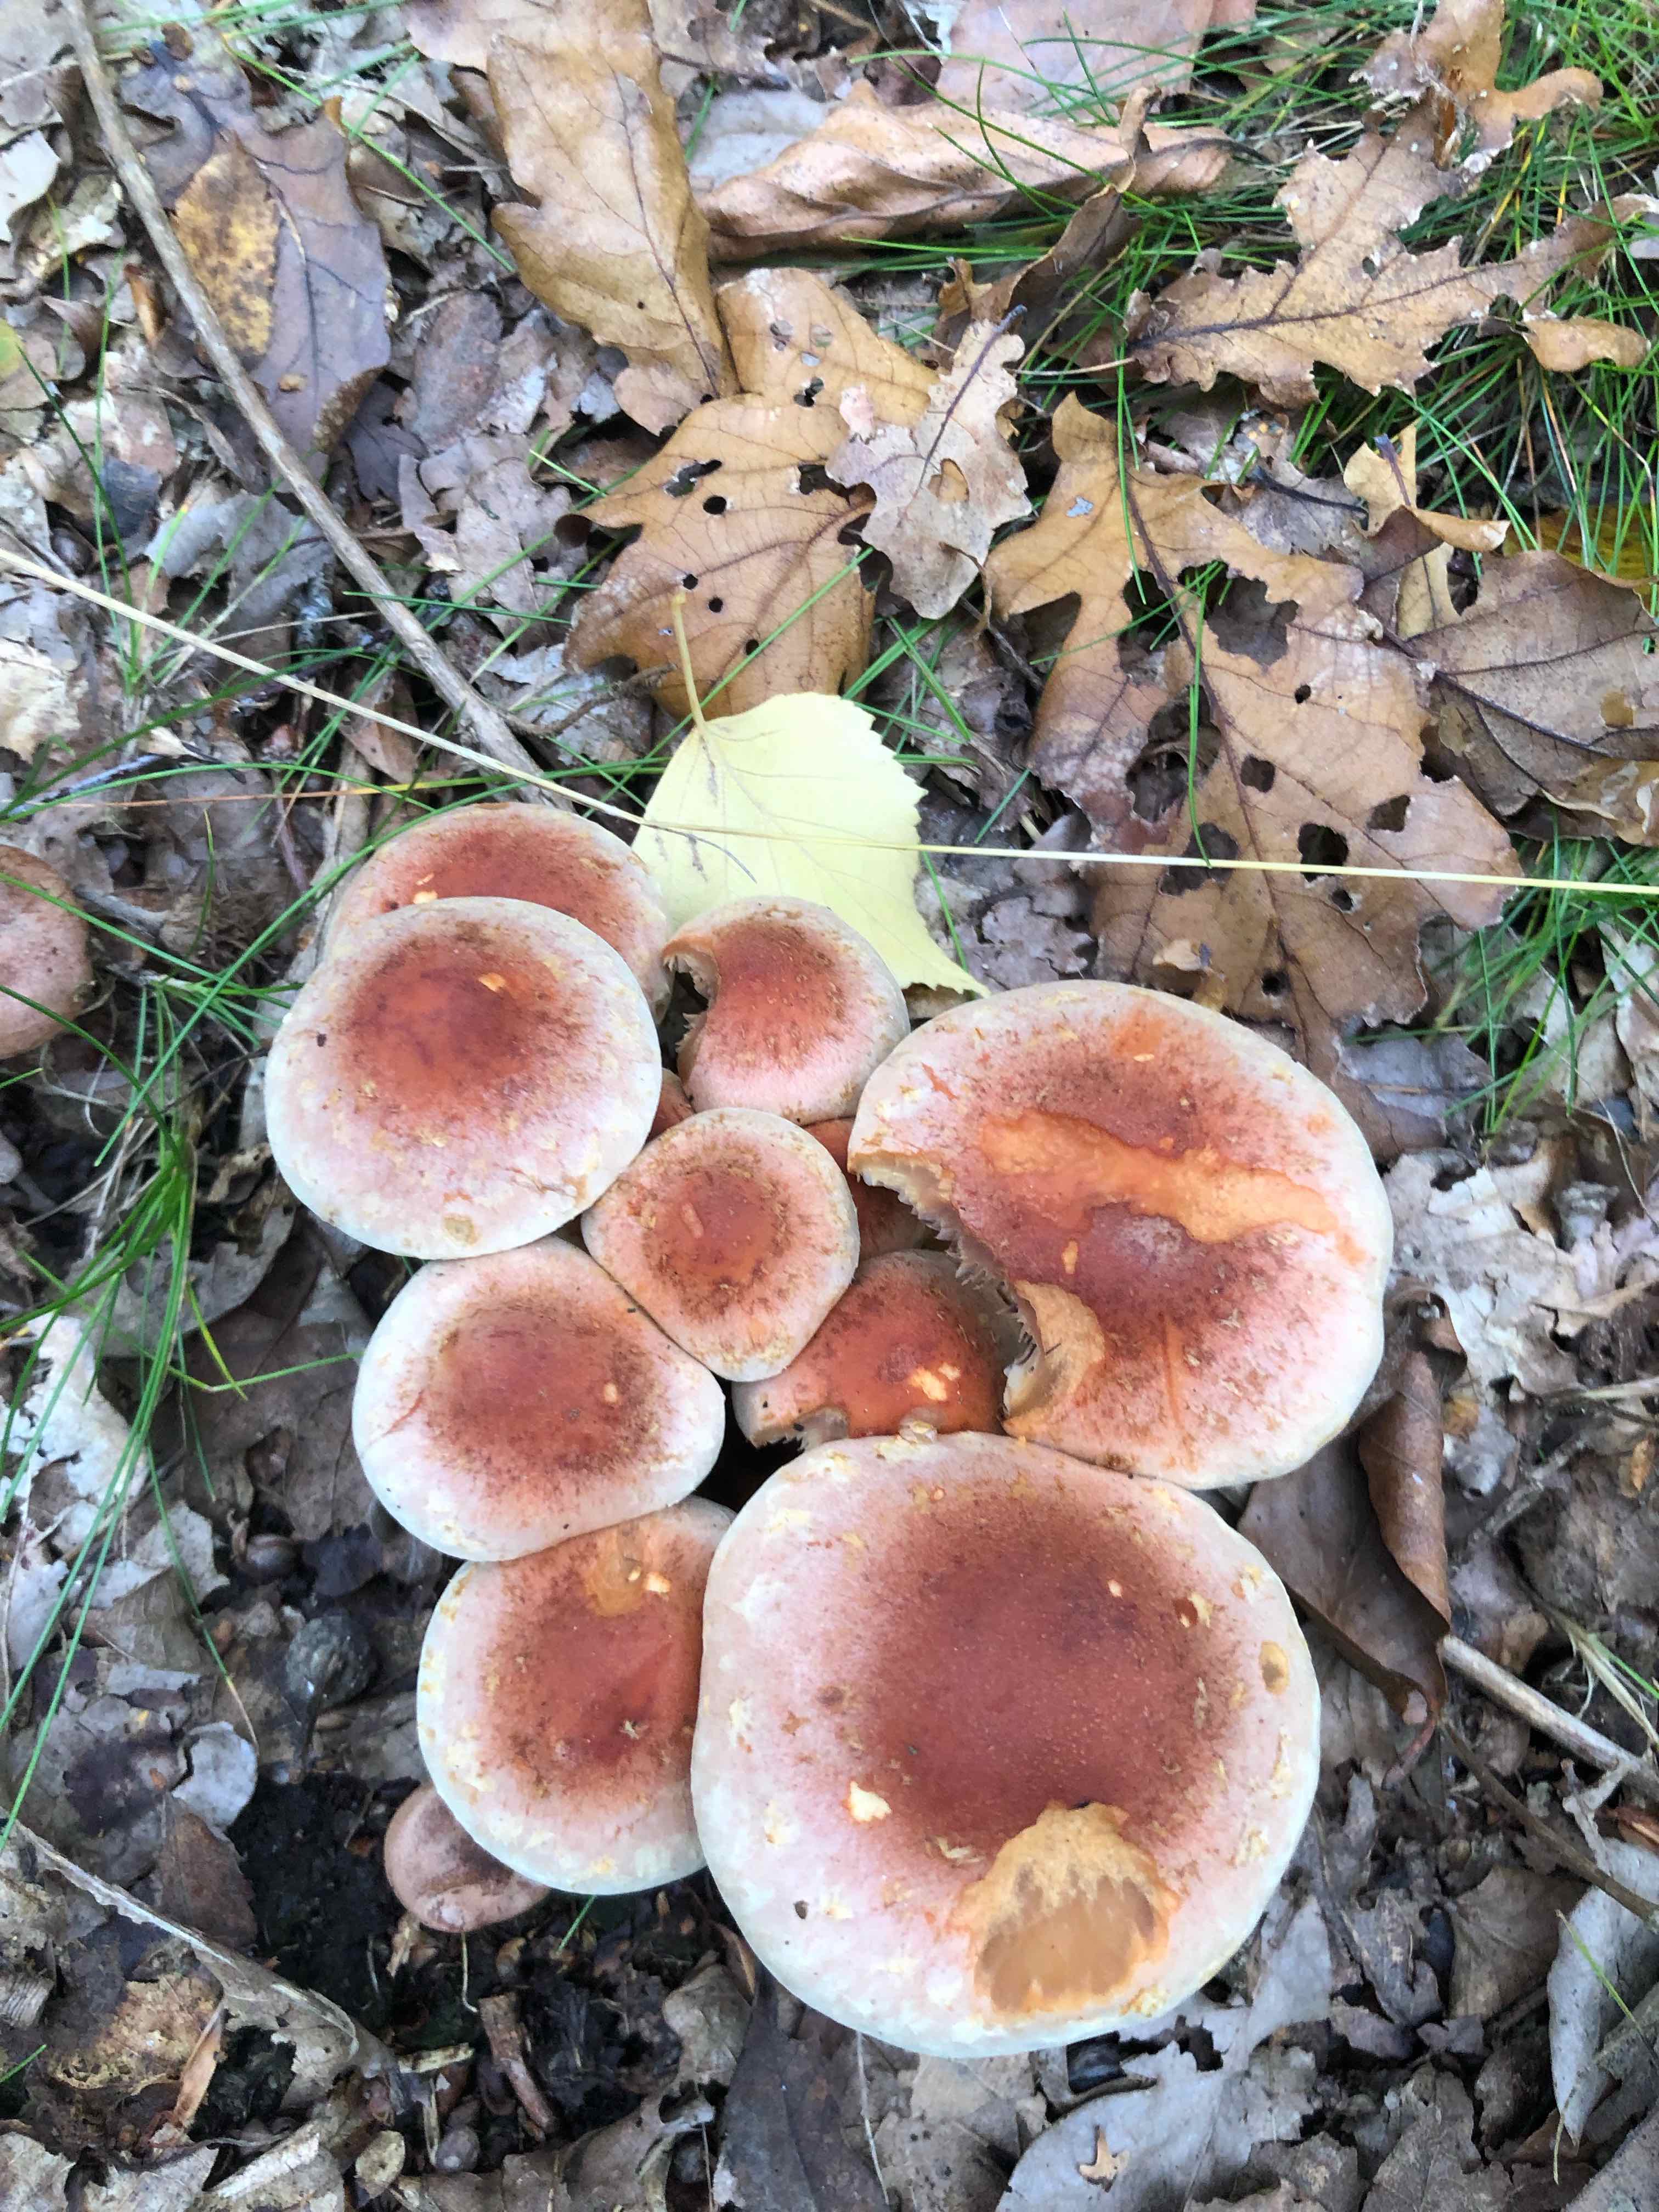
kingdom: Fungi
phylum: Basidiomycota
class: Agaricomycetes
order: Agaricales
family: Strophariaceae
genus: Hypholoma
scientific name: Hypholoma lateritium
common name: teglrød svovlhat
